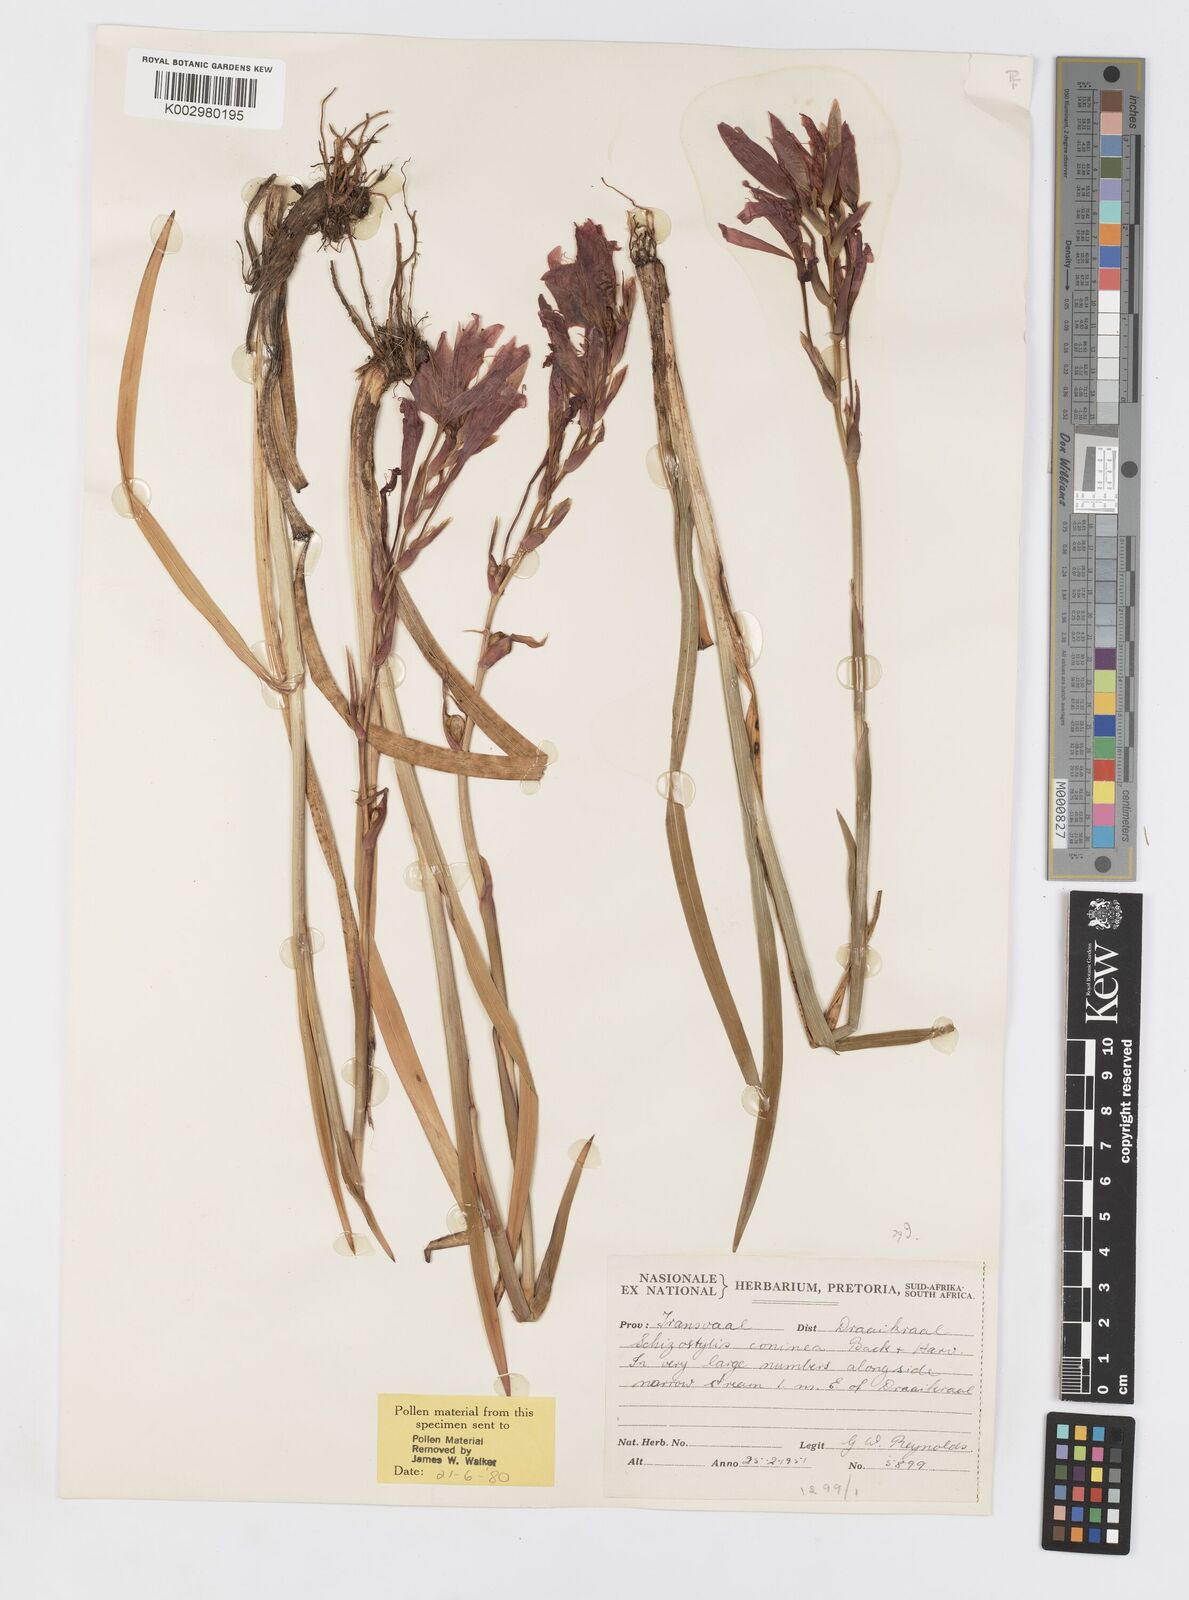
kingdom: Plantae
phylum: Tracheophyta
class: Liliopsida
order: Asparagales
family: Iridaceae
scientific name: Iridaceae
